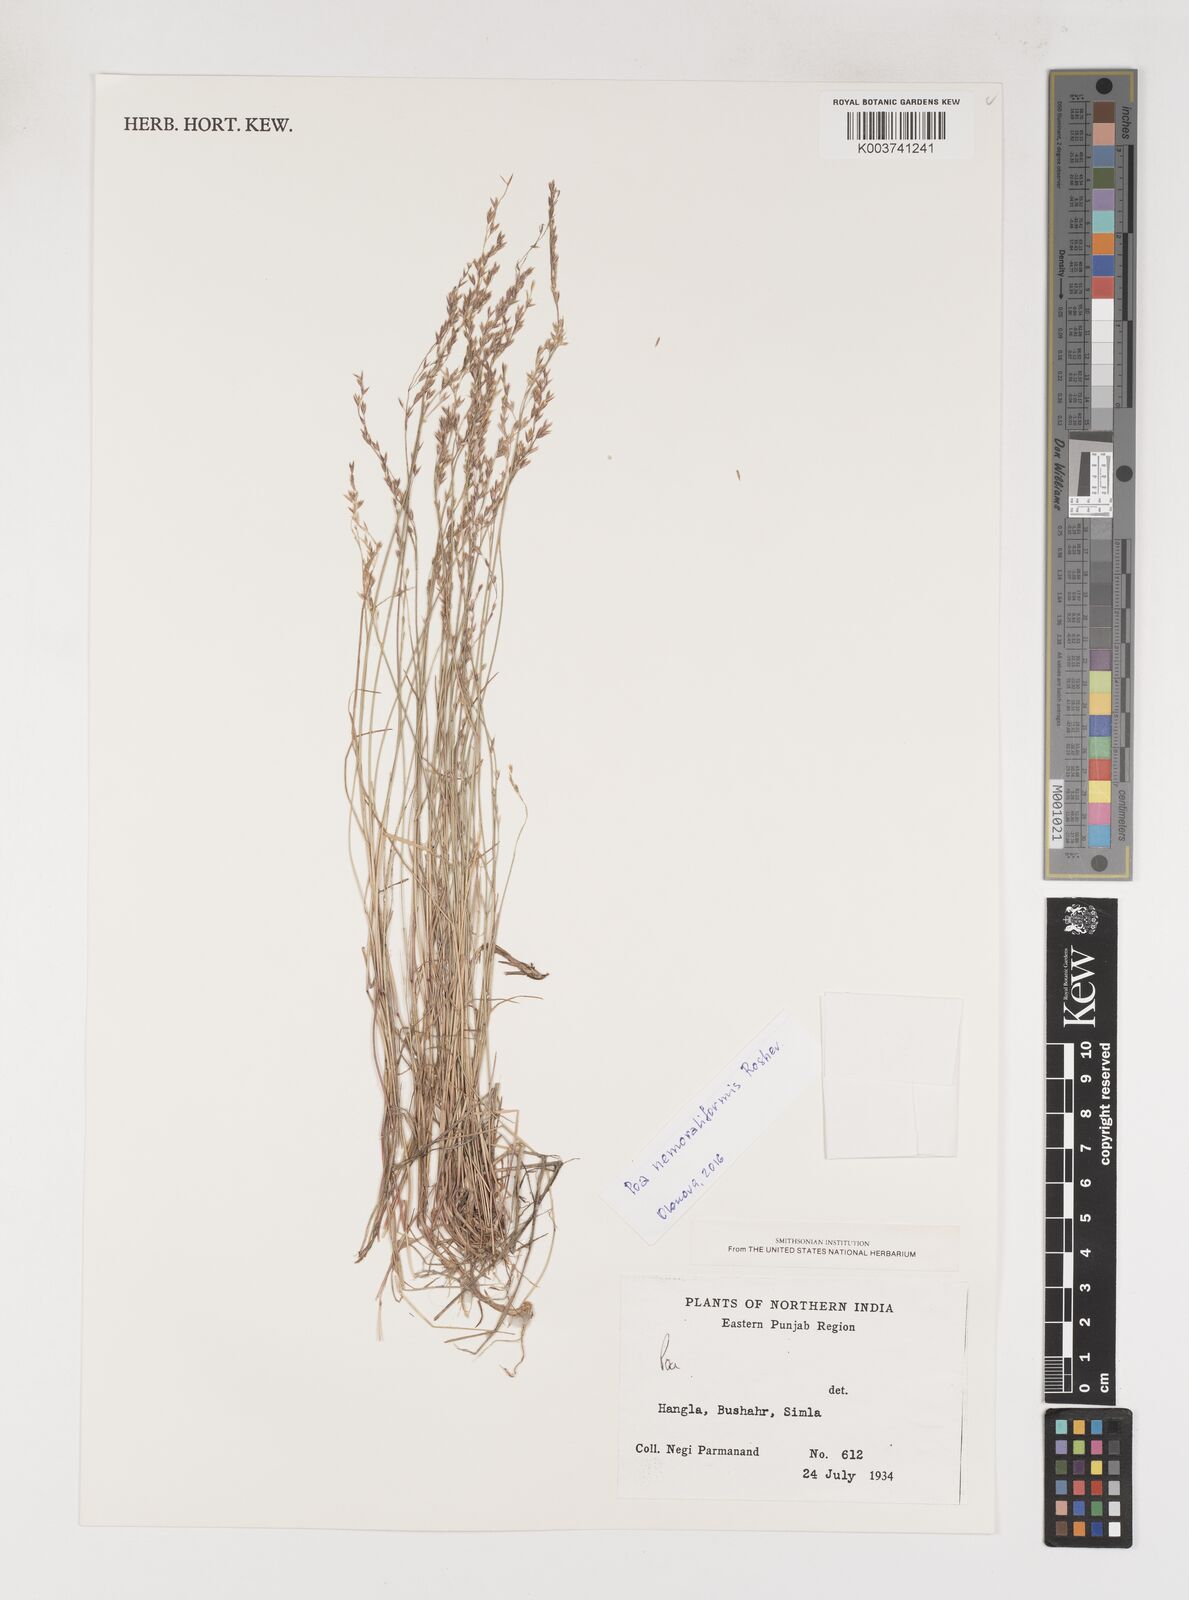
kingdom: Plantae
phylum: Tracheophyta
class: Liliopsida
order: Poales
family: Poaceae
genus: Poa
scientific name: Poa
